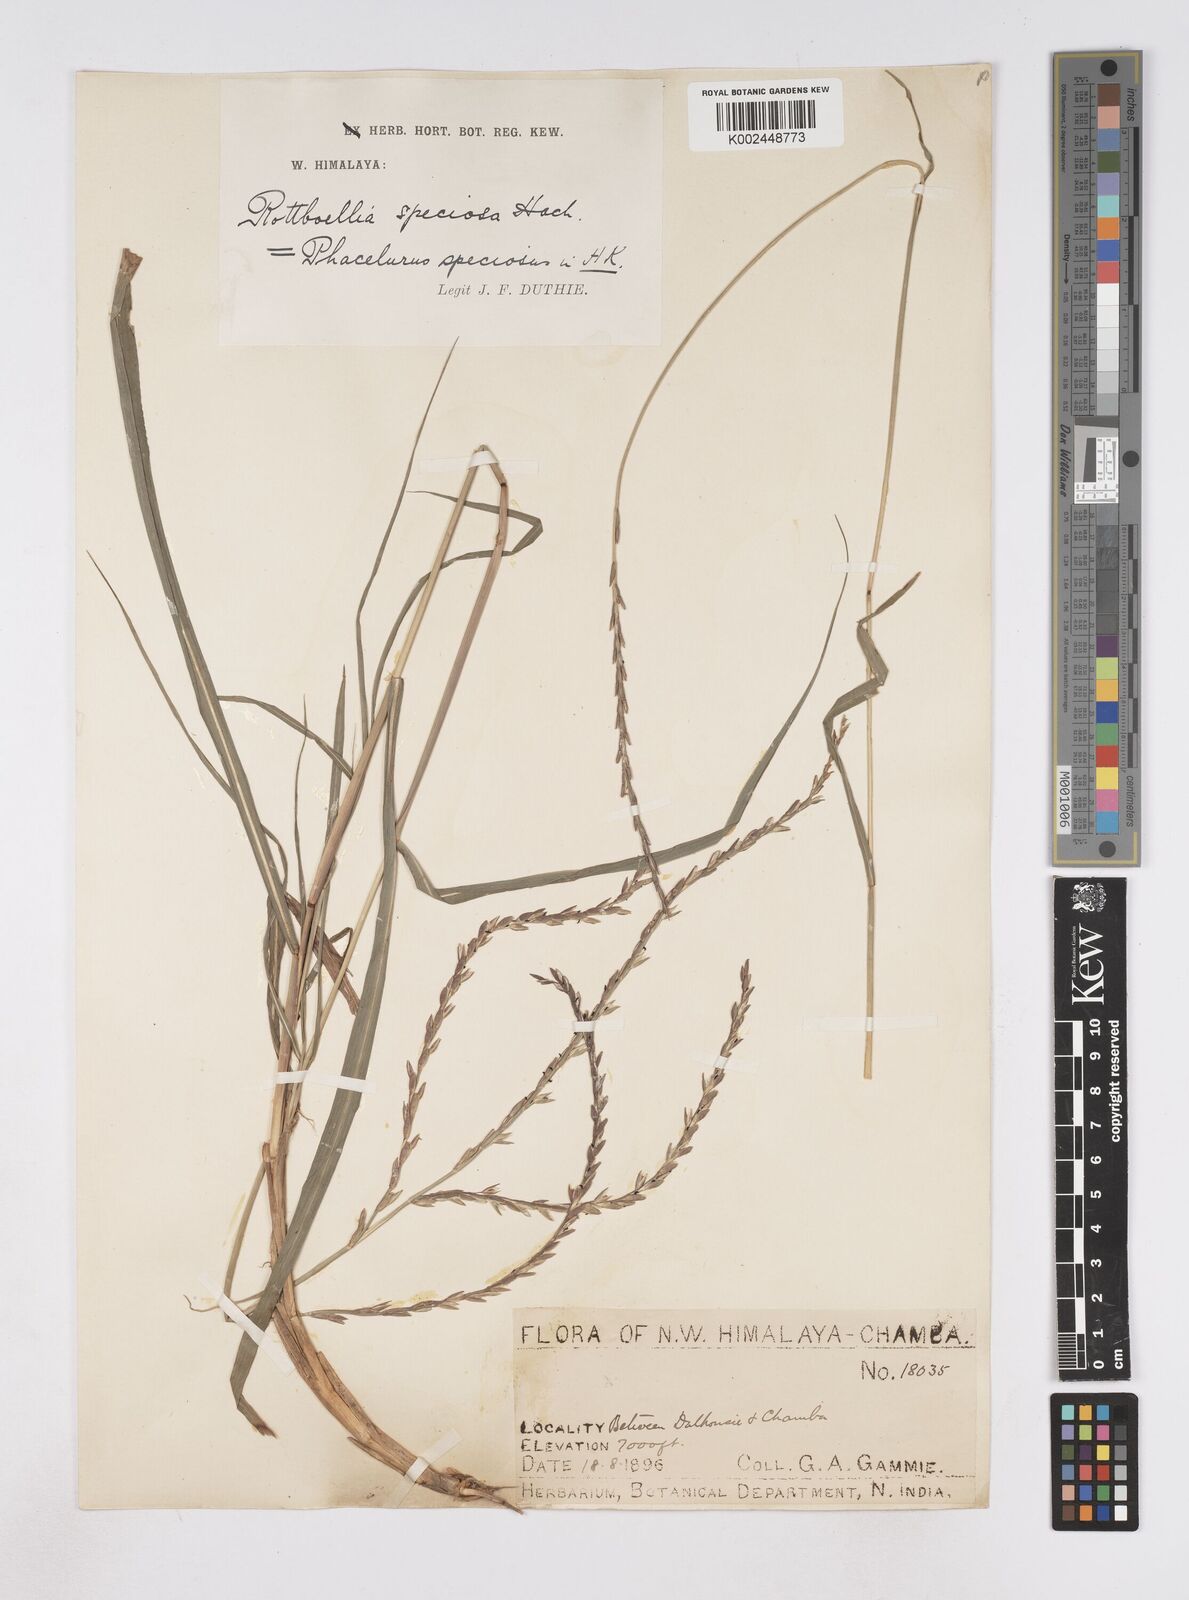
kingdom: Plantae
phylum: Tracheophyta
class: Liliopsida
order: Poales
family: Poaceae
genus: Phacelurus
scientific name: Phacelurus speciosus
